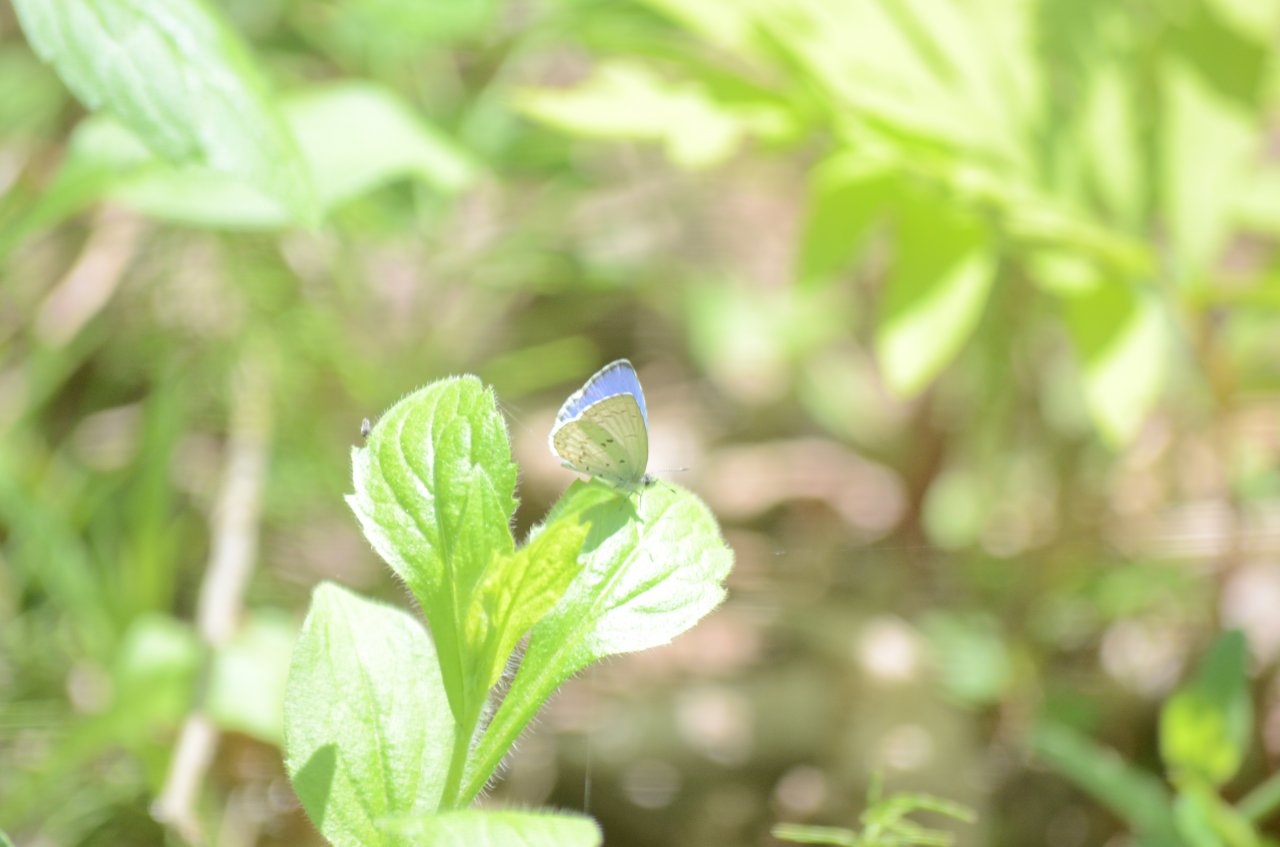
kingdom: Animalia
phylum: Arthropoda
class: Insecta
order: Lepidoptera
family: Lycaenidae
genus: Celastrina
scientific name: Celastrina
